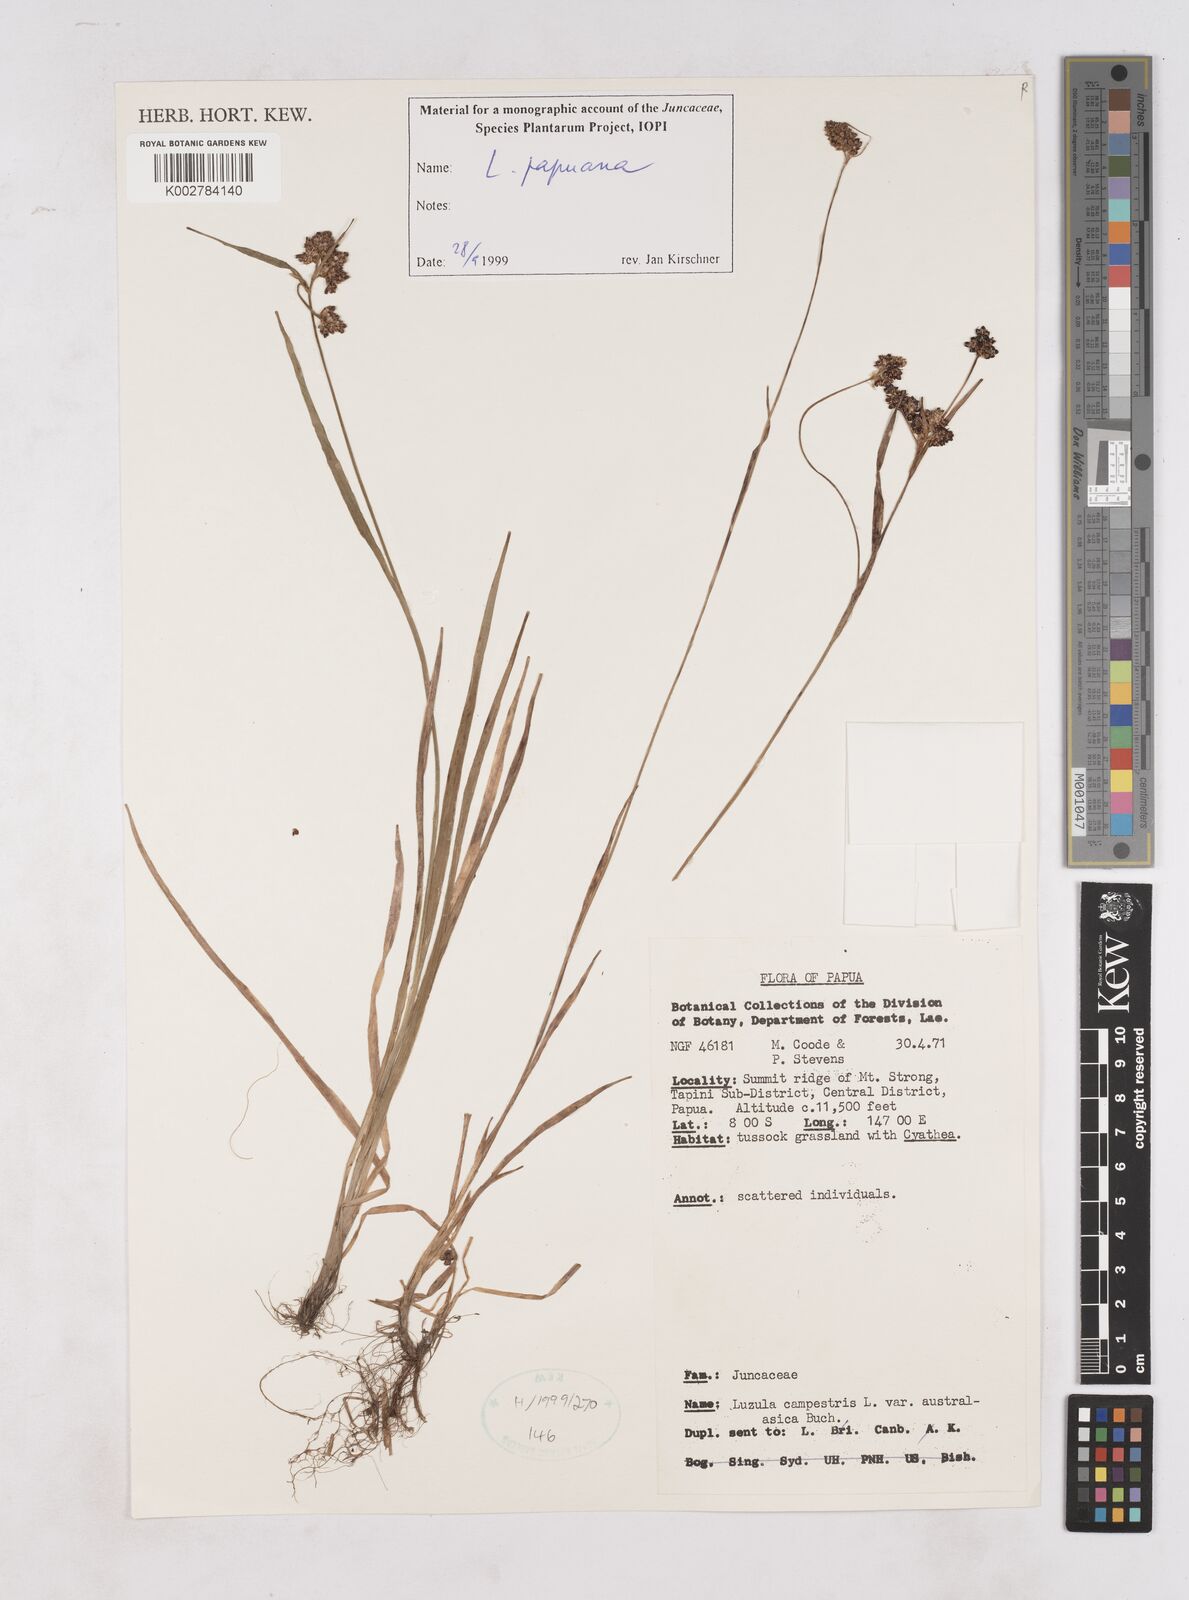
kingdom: Plantae
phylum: Tracheophyta
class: Liliopsida
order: Poales
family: Juncaceae
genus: Luzula
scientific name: Luzula papuana
